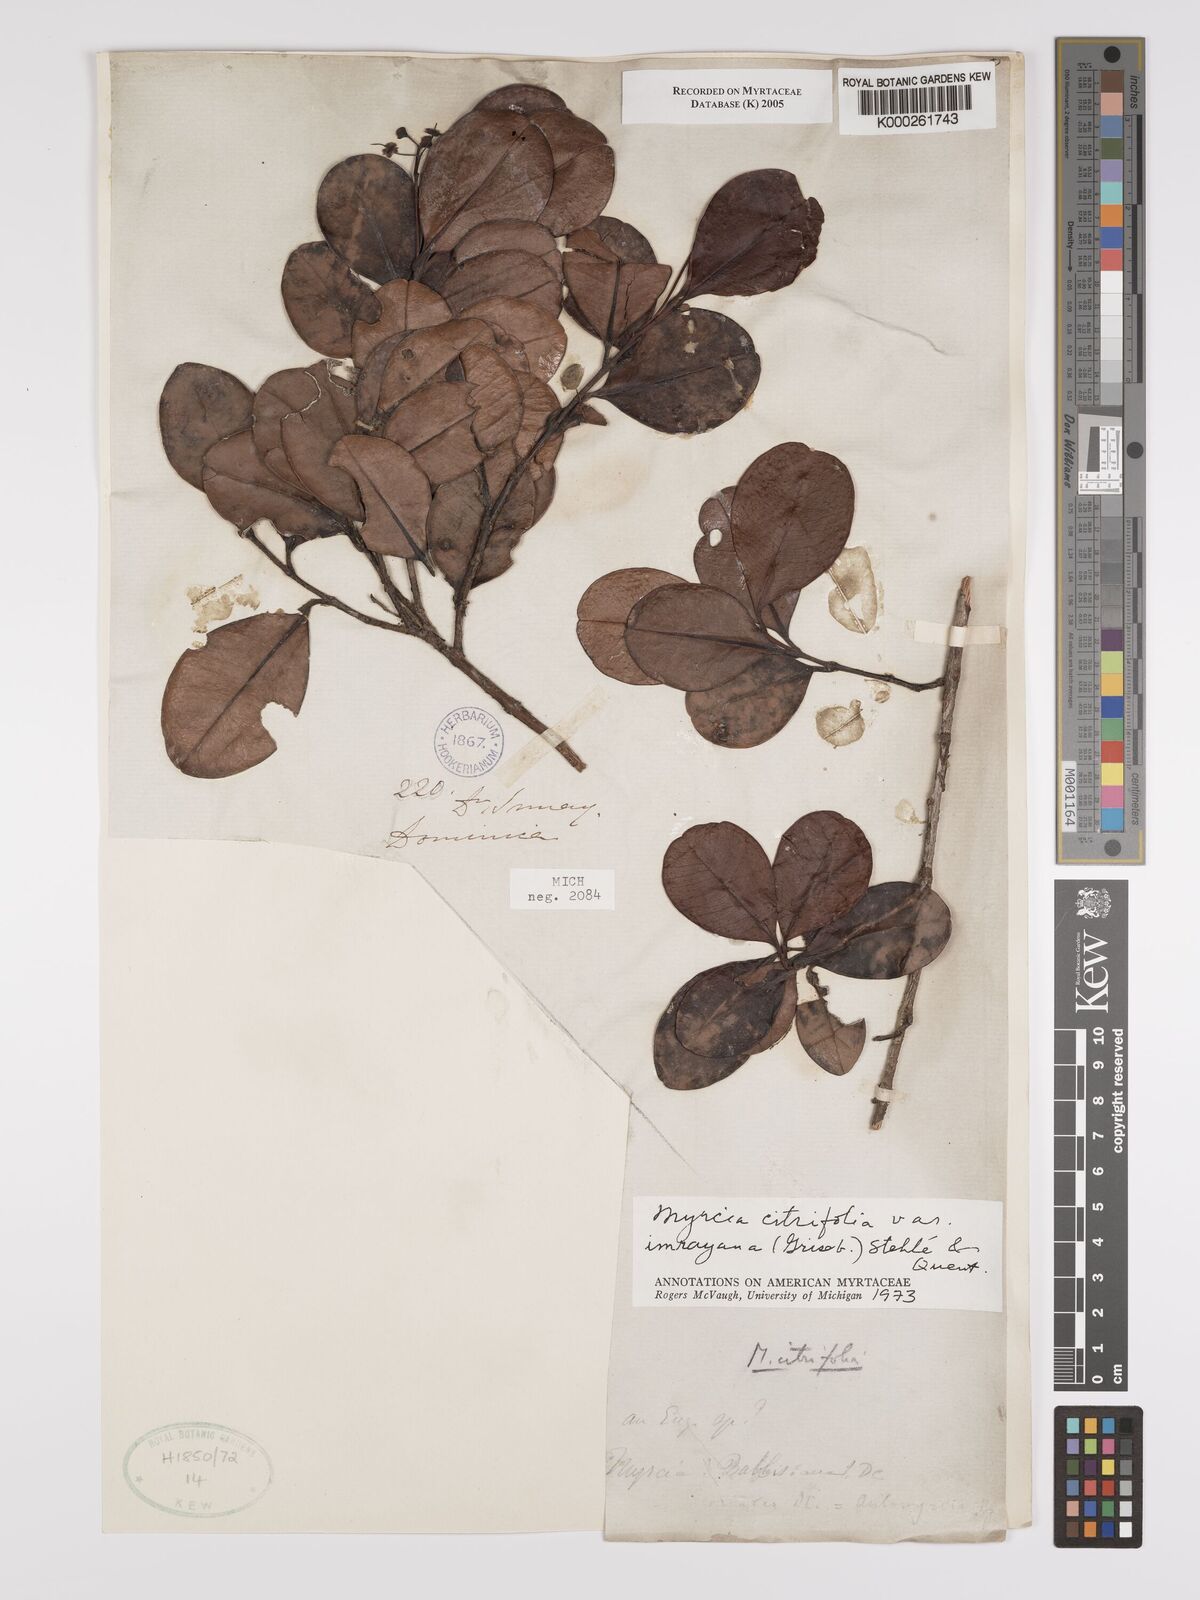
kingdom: Plantae
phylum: Tracheophyta
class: Magnoliopsida
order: Myrtales
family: Myrtaceae
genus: Myrcia
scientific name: Myrcia guianensis
